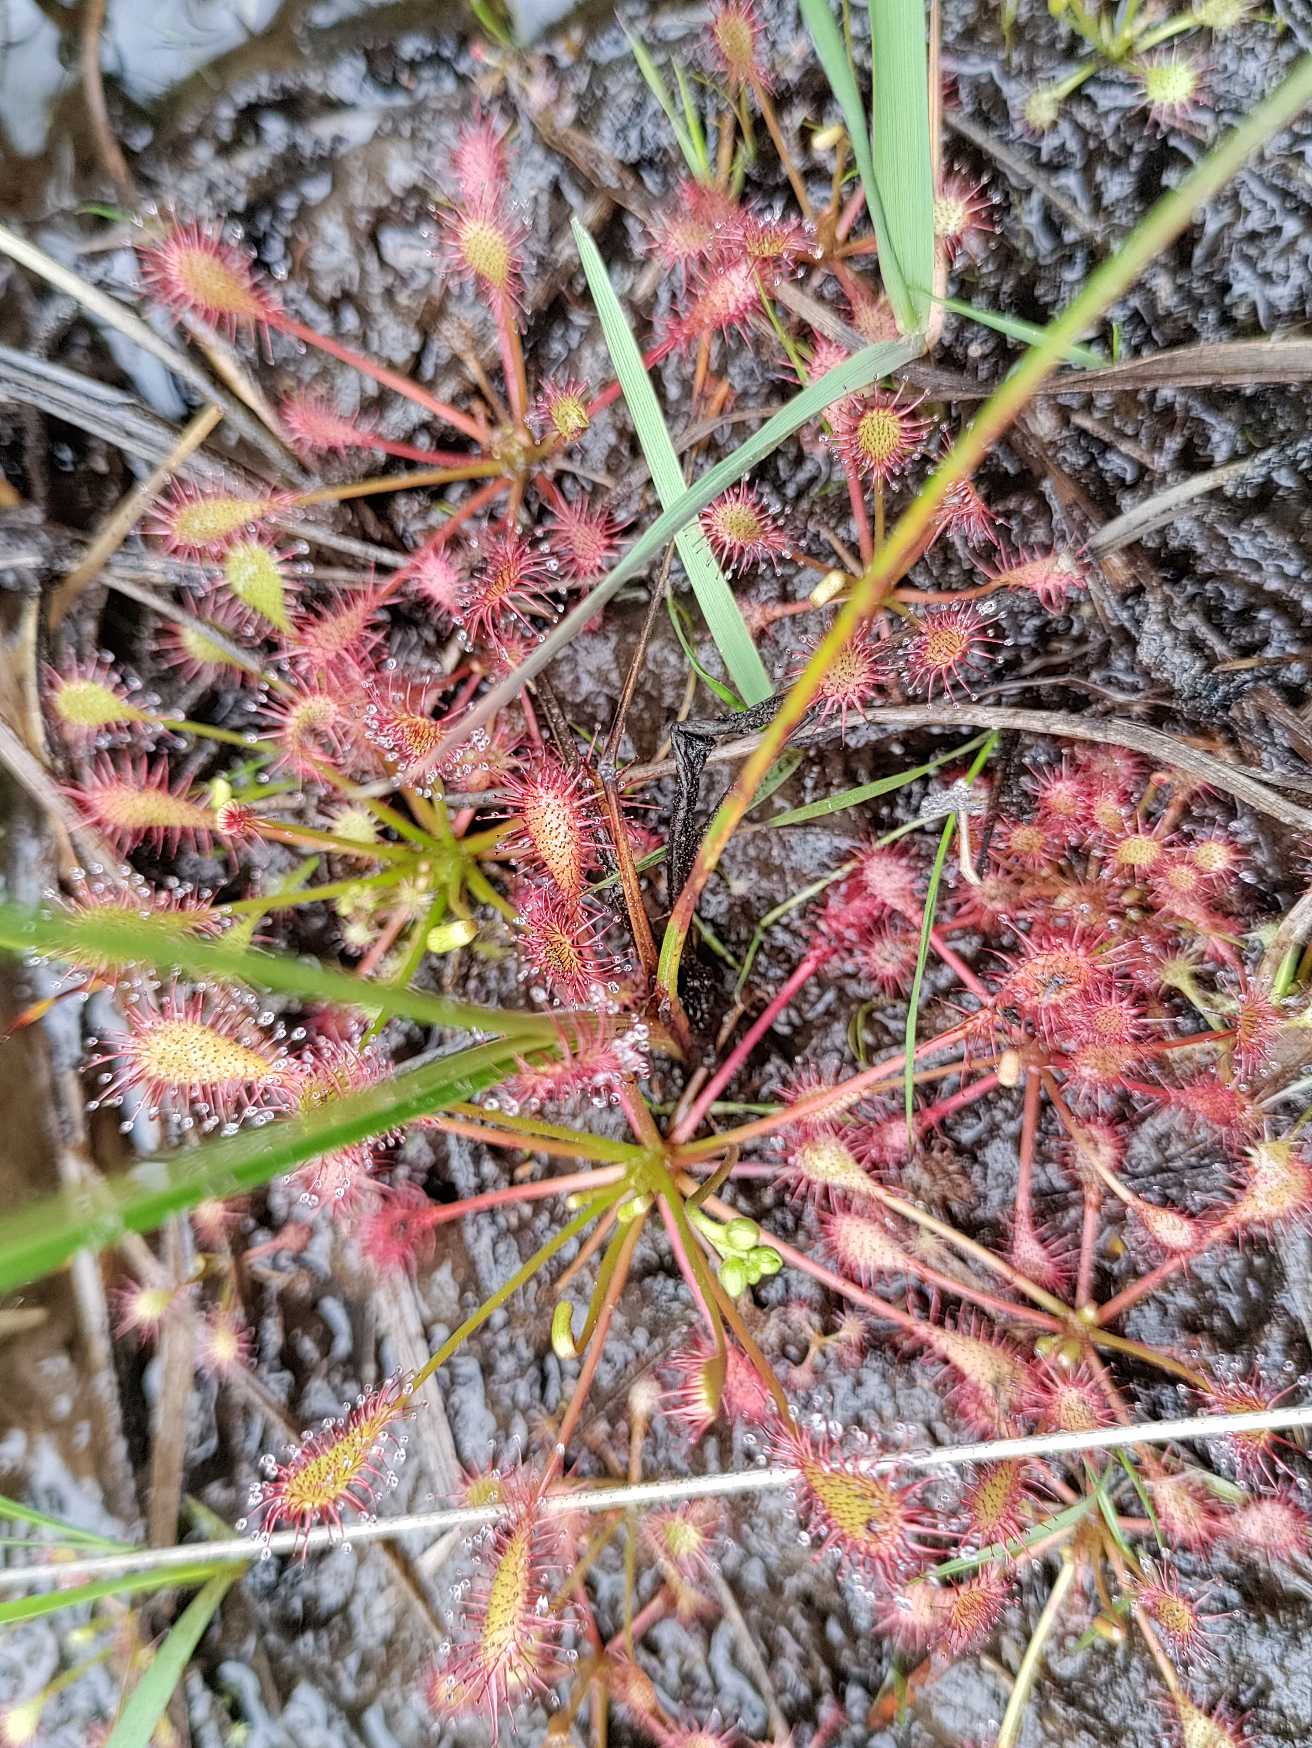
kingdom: Plantae
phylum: Tracheophyta
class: Magnoliopsida
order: Caryophyllales
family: Droseraceae
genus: Drosera
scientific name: Drosera intermedia
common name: Liden soldug
